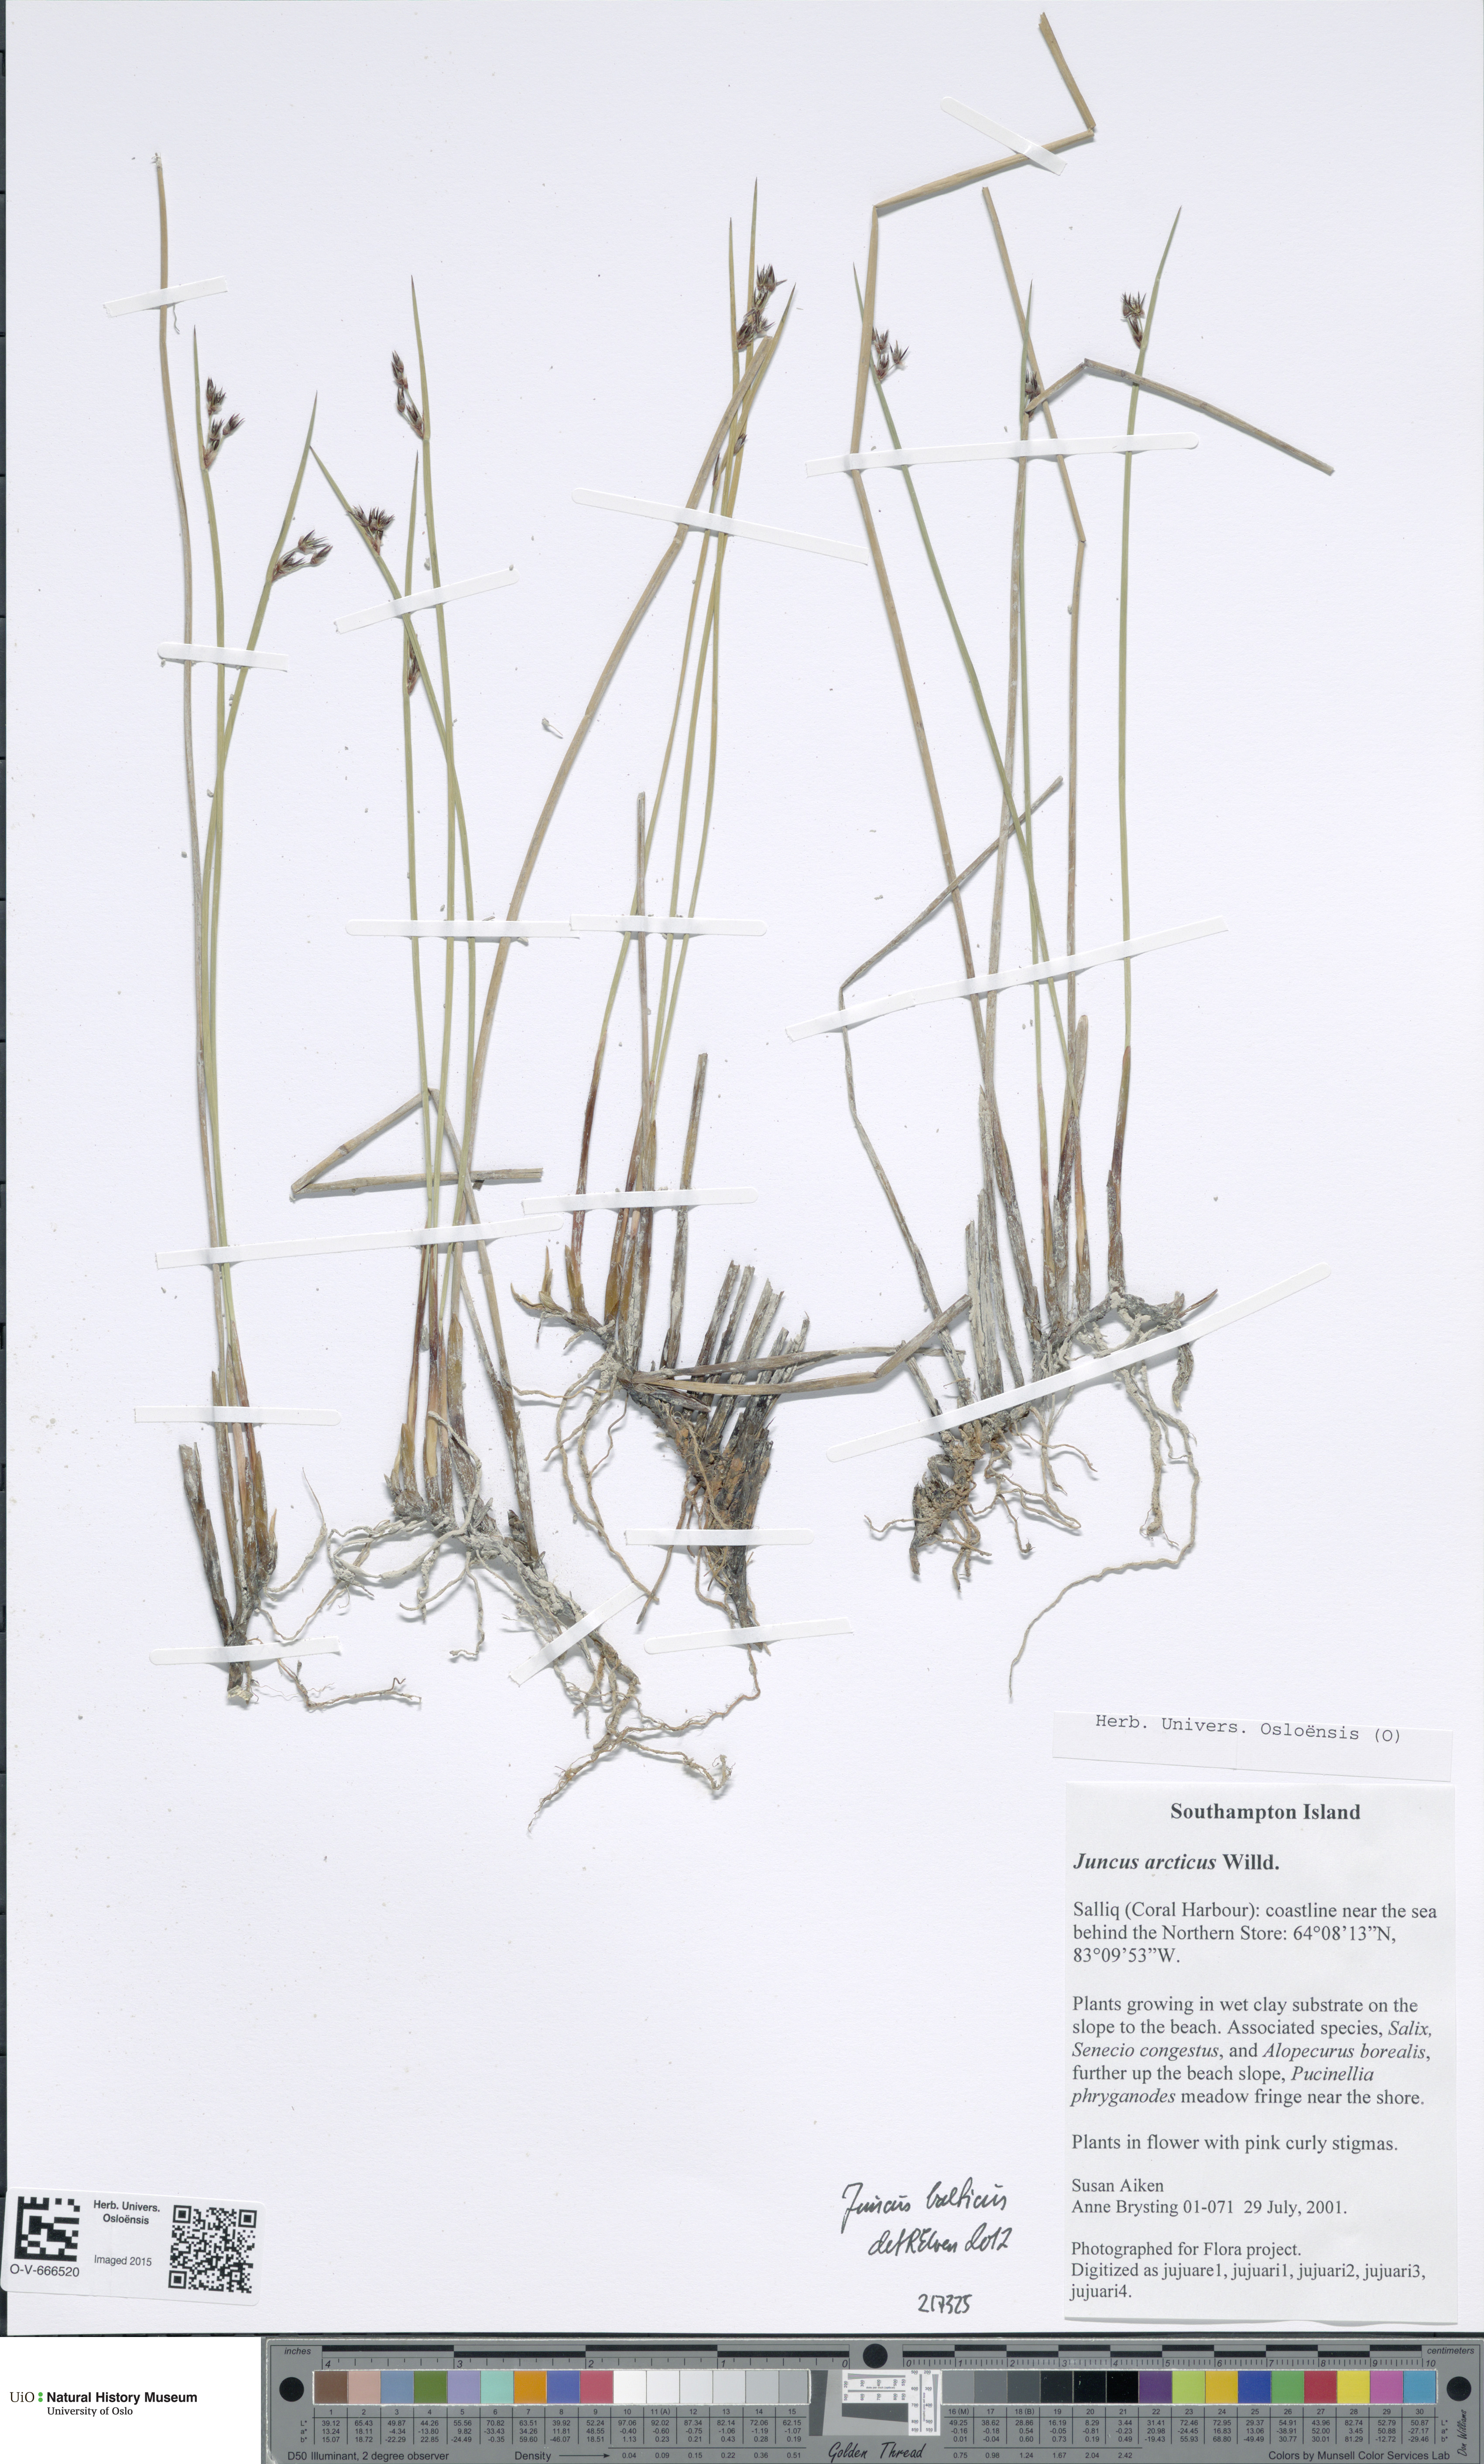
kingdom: Plantae
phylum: Tracheophyta
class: Liliopsida
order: Poales
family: Juncaceae
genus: Juncus
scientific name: Juncus balticus
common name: Baltic rush
